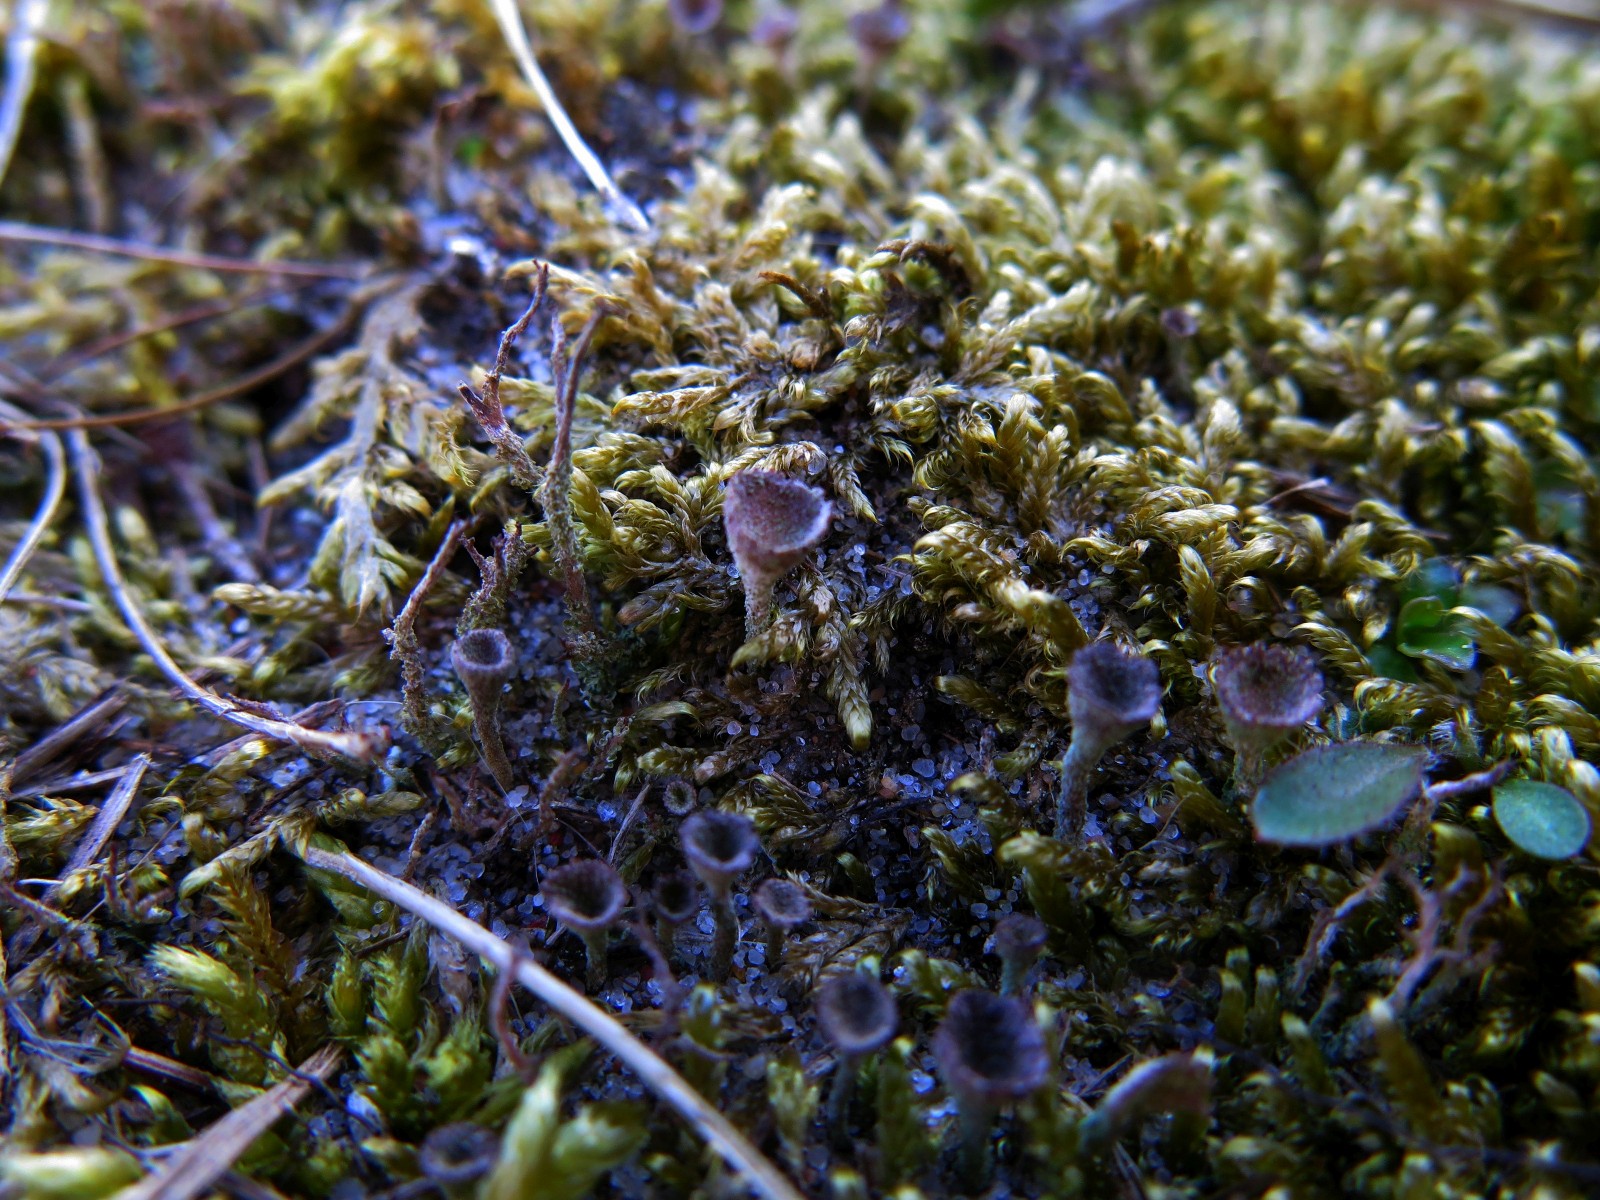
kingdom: Fungi
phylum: Ascomycota
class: Lecanoromycetes
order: Lecanorales
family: Cladoniaceae
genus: Cladonia
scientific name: Cladonia
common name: brungrøn bægerlav
